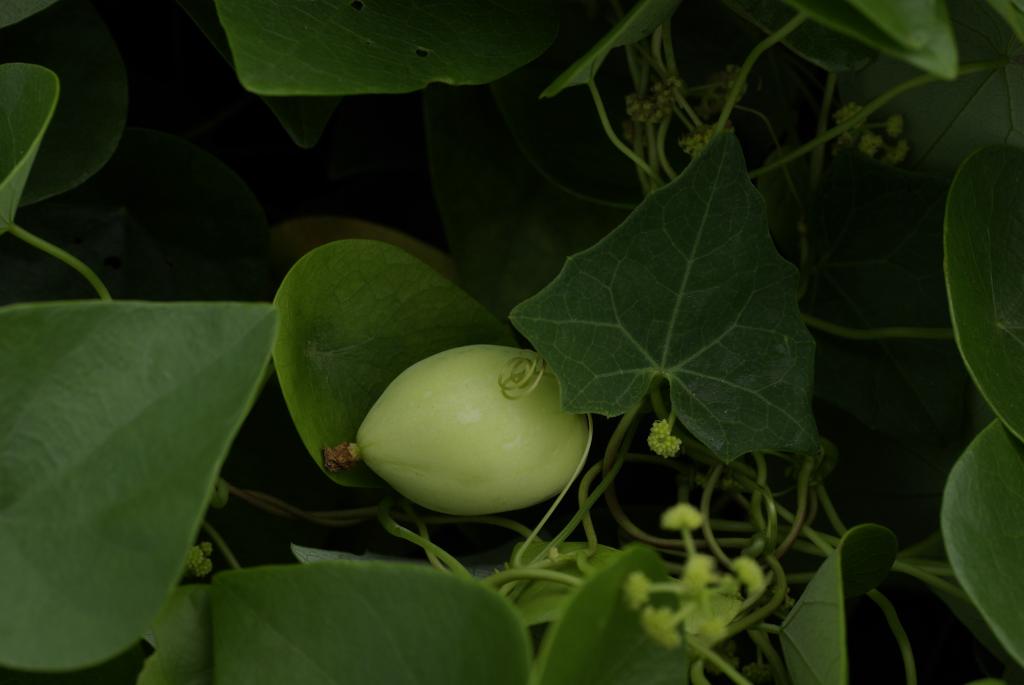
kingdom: Plantae
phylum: Tracheophyta
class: Magnoliopsida
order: Cucurbitales
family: Cucurbitaceae
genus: Solena
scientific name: Solena amplexicaulis
